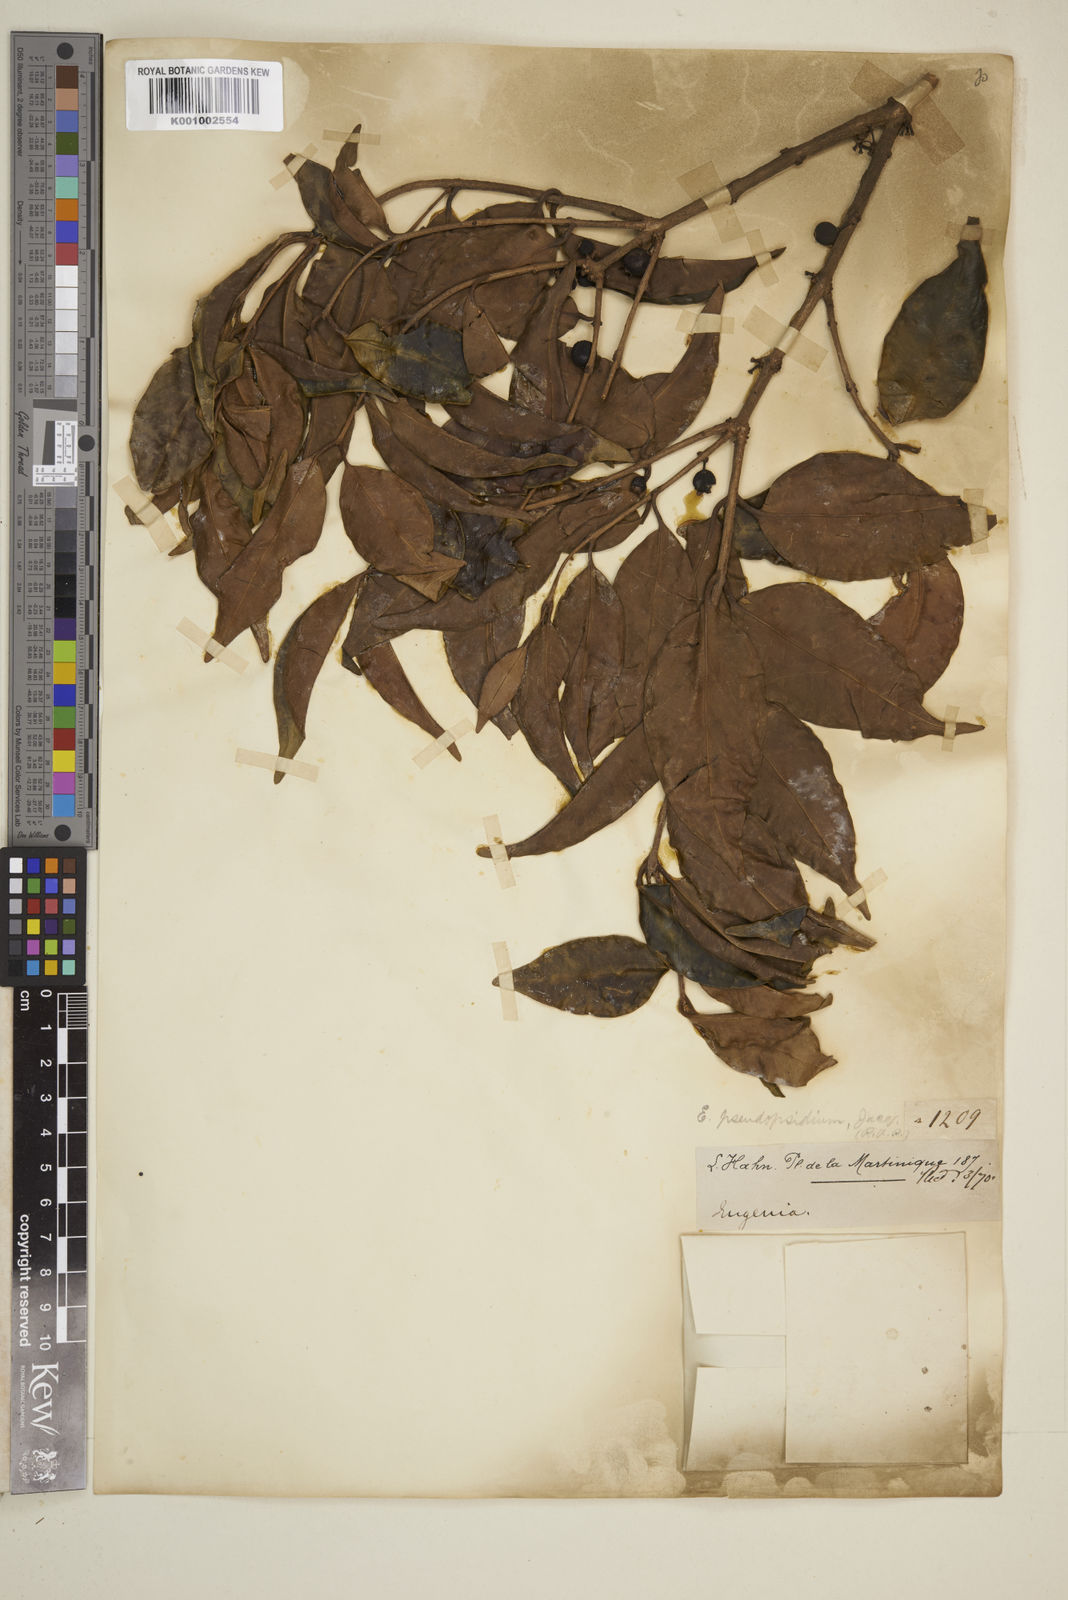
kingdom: Plantae
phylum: Tracheophyta
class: Magnoliopsida
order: Myrtales
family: Myrtaceae
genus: Eugenia
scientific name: Eugenia lambertiana
